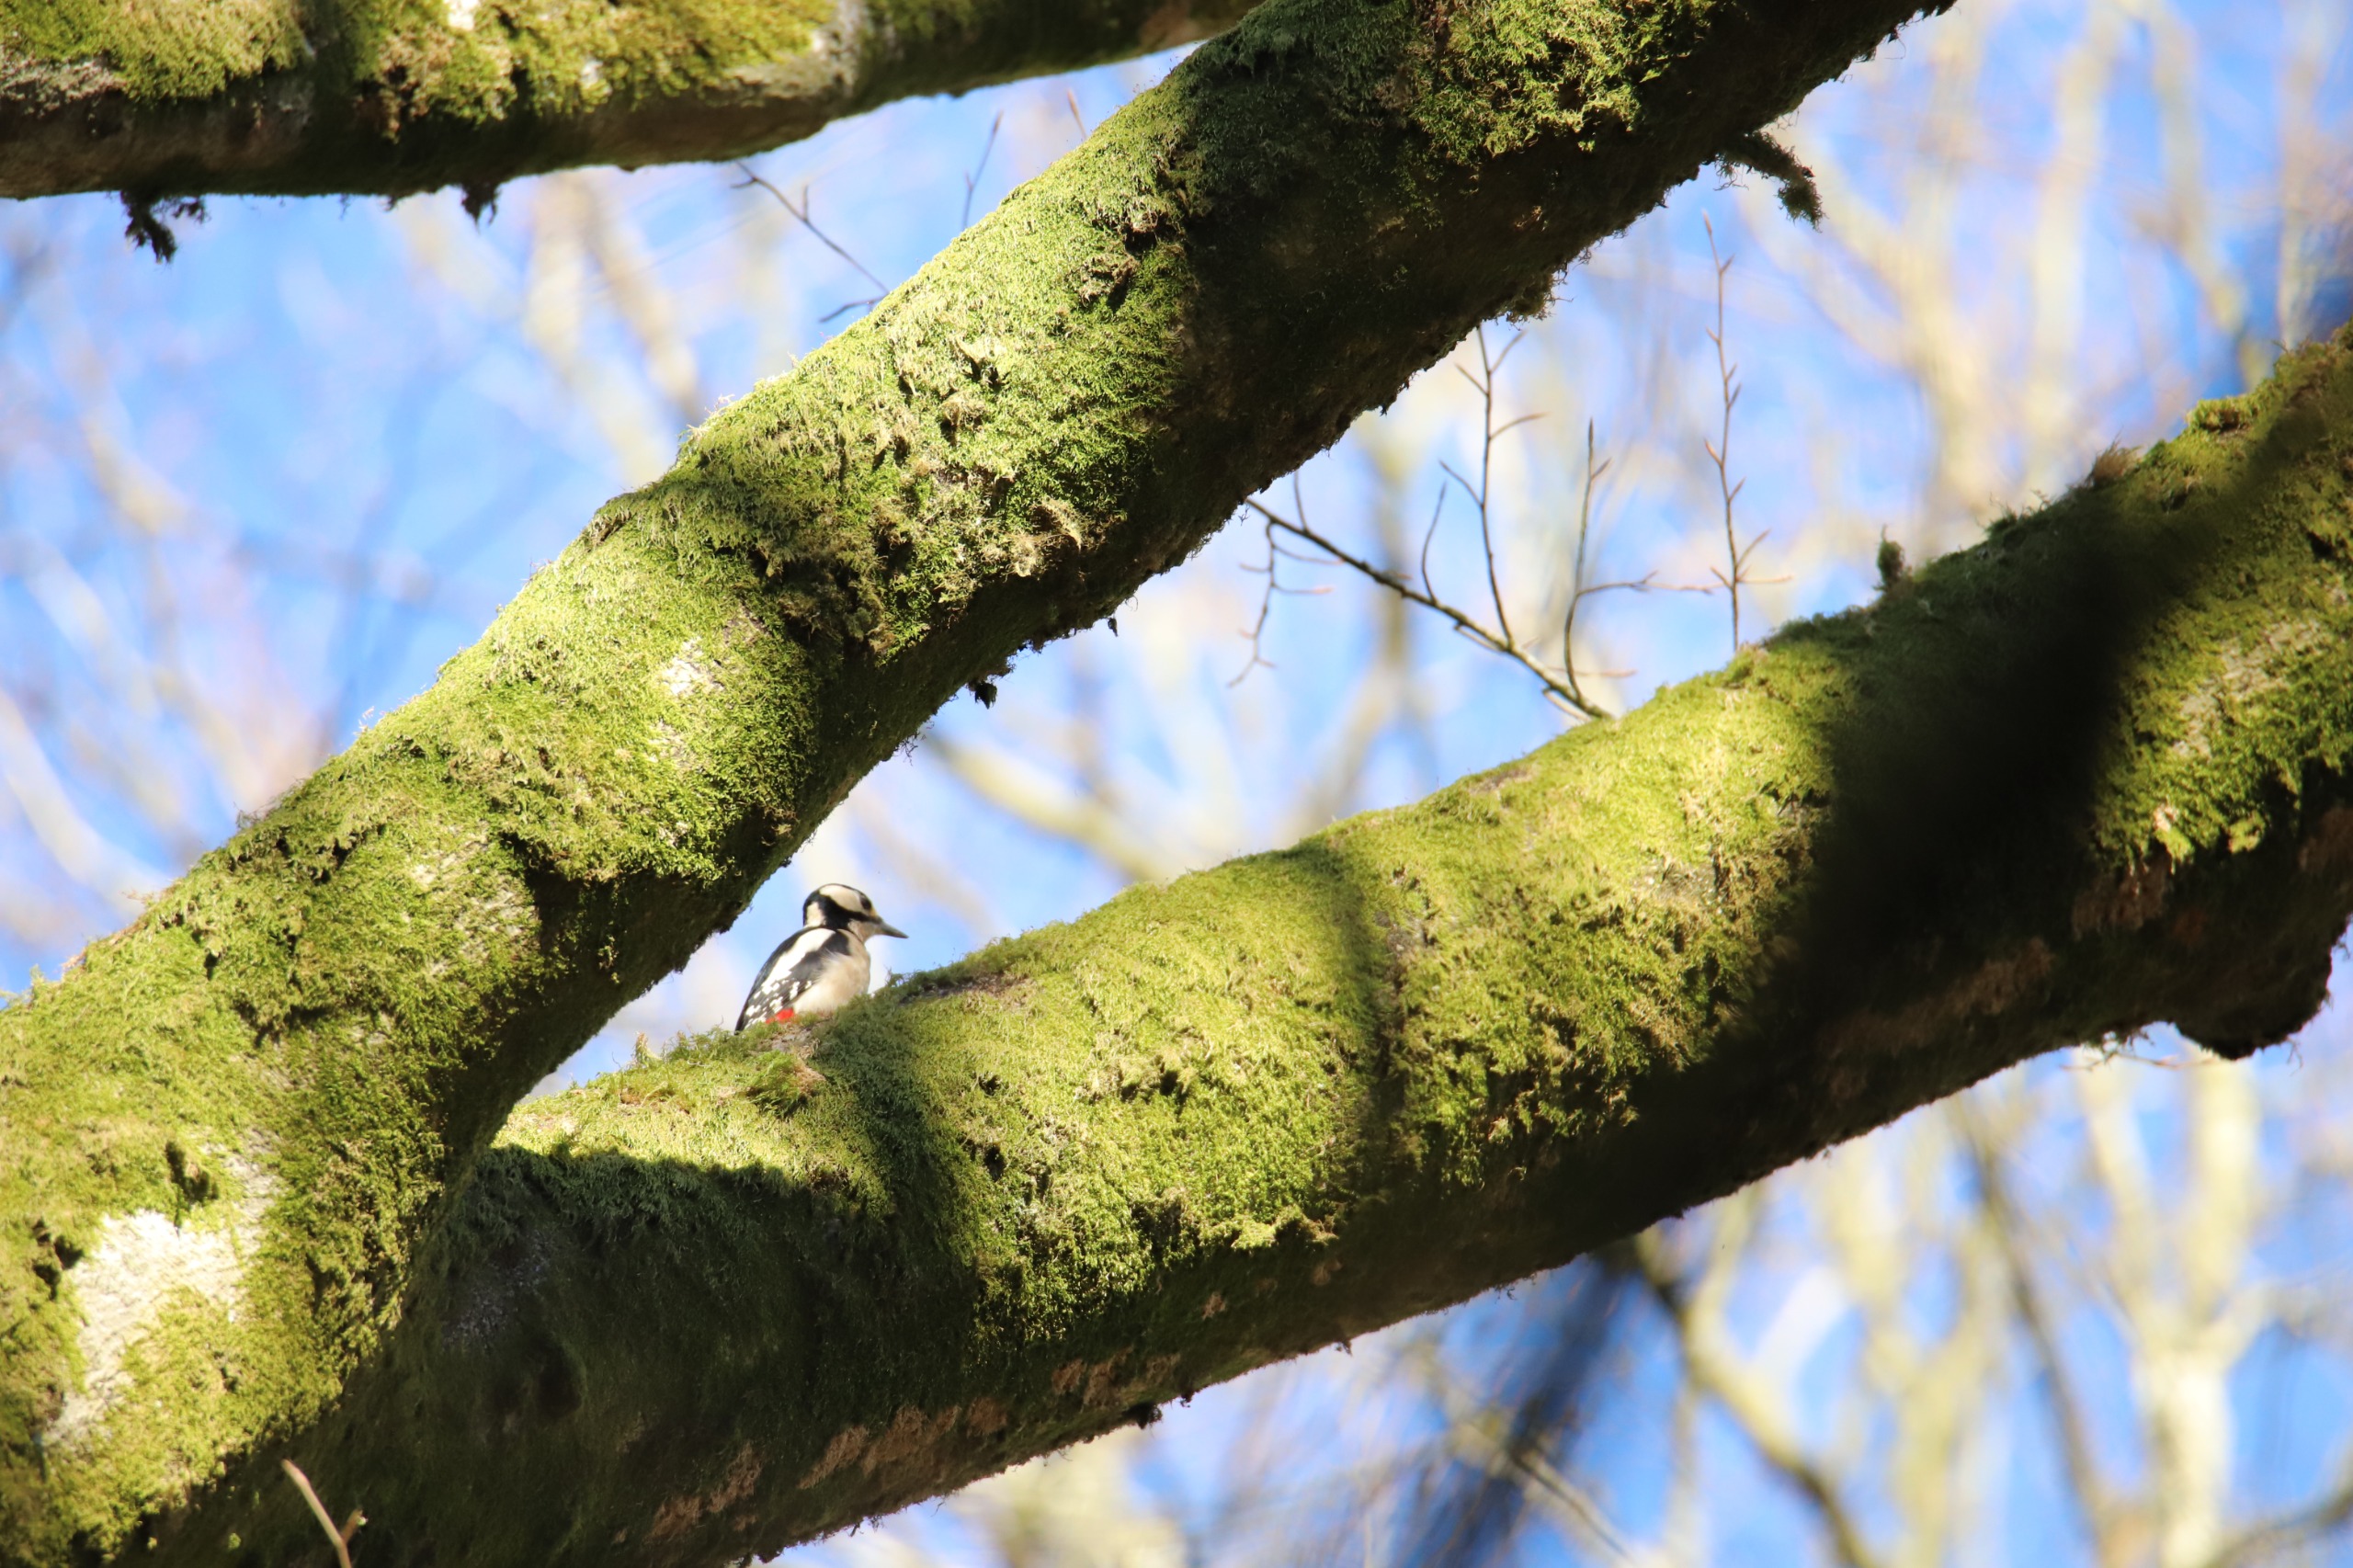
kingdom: Animalia
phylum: Chordata
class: Aves
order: Piciformes
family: Picidae
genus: Dendrocopos
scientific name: Dendrocopos major
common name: Stor flagspætte
